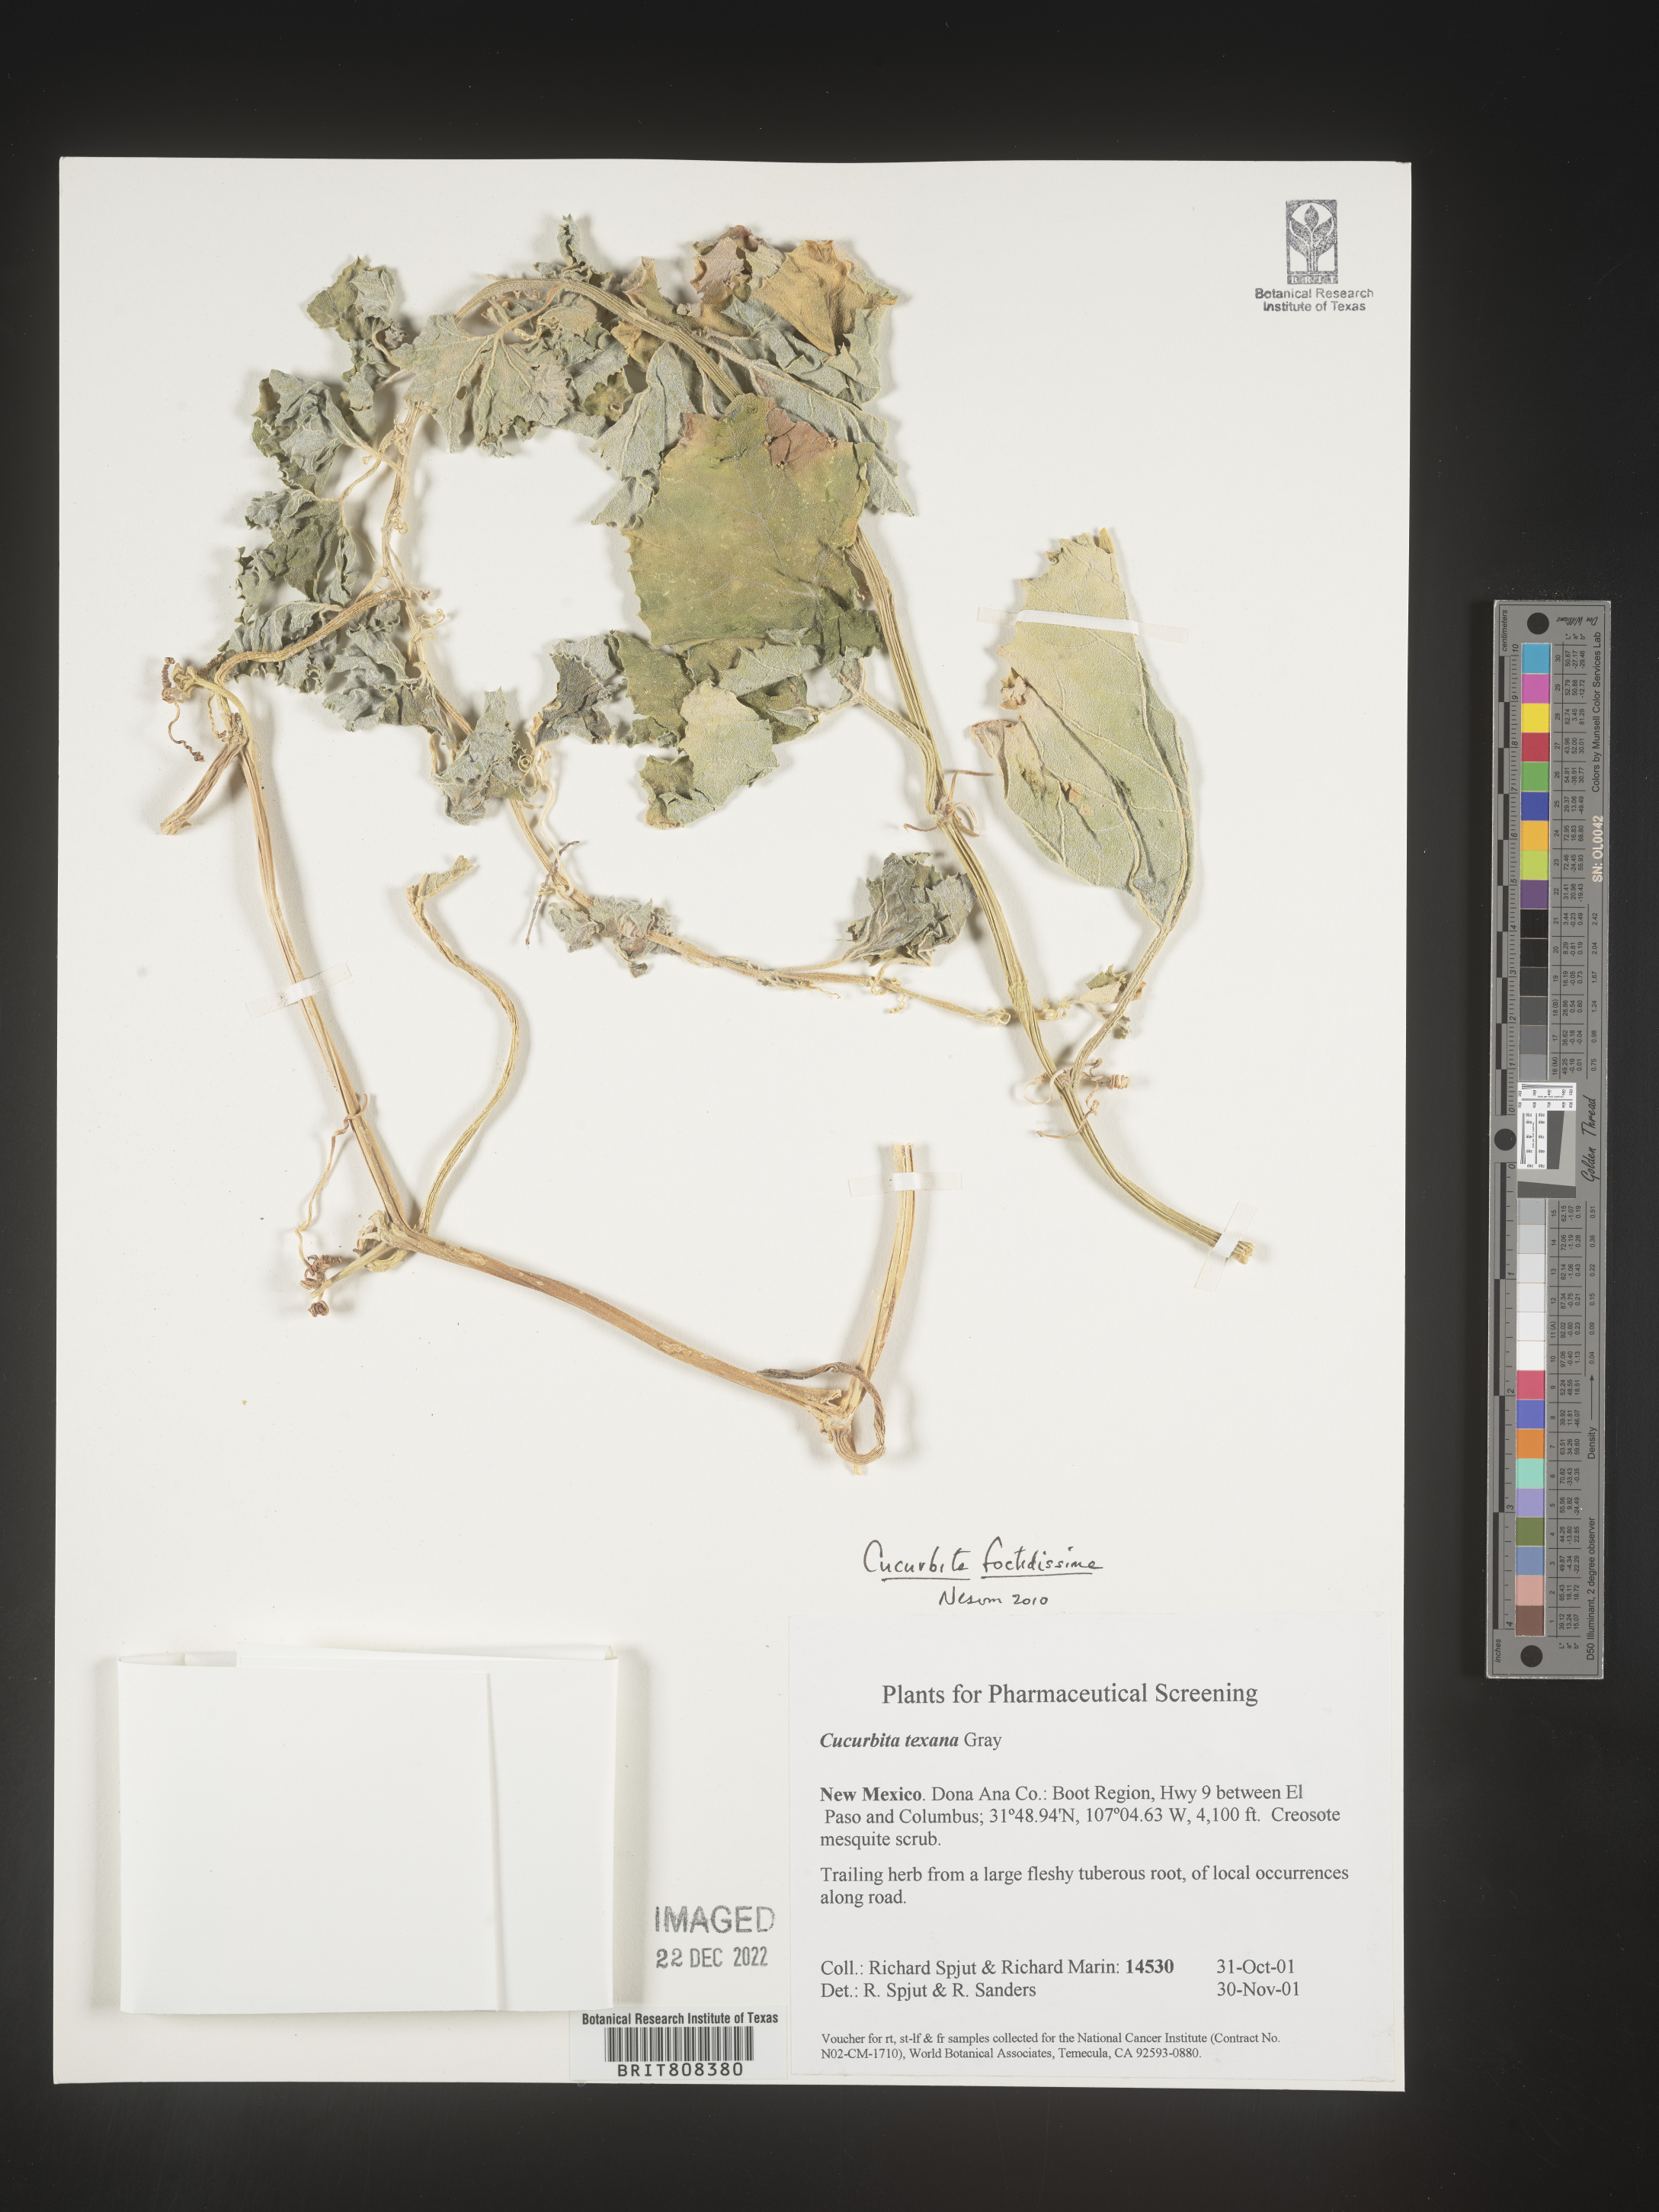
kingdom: Plantae
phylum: Tracheophyta
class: Magnoliopsida
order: Cucurbitales
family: Cucurbitaceae
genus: Cucurbita
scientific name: Cucurbita foetidissima
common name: Buffalo gourd
